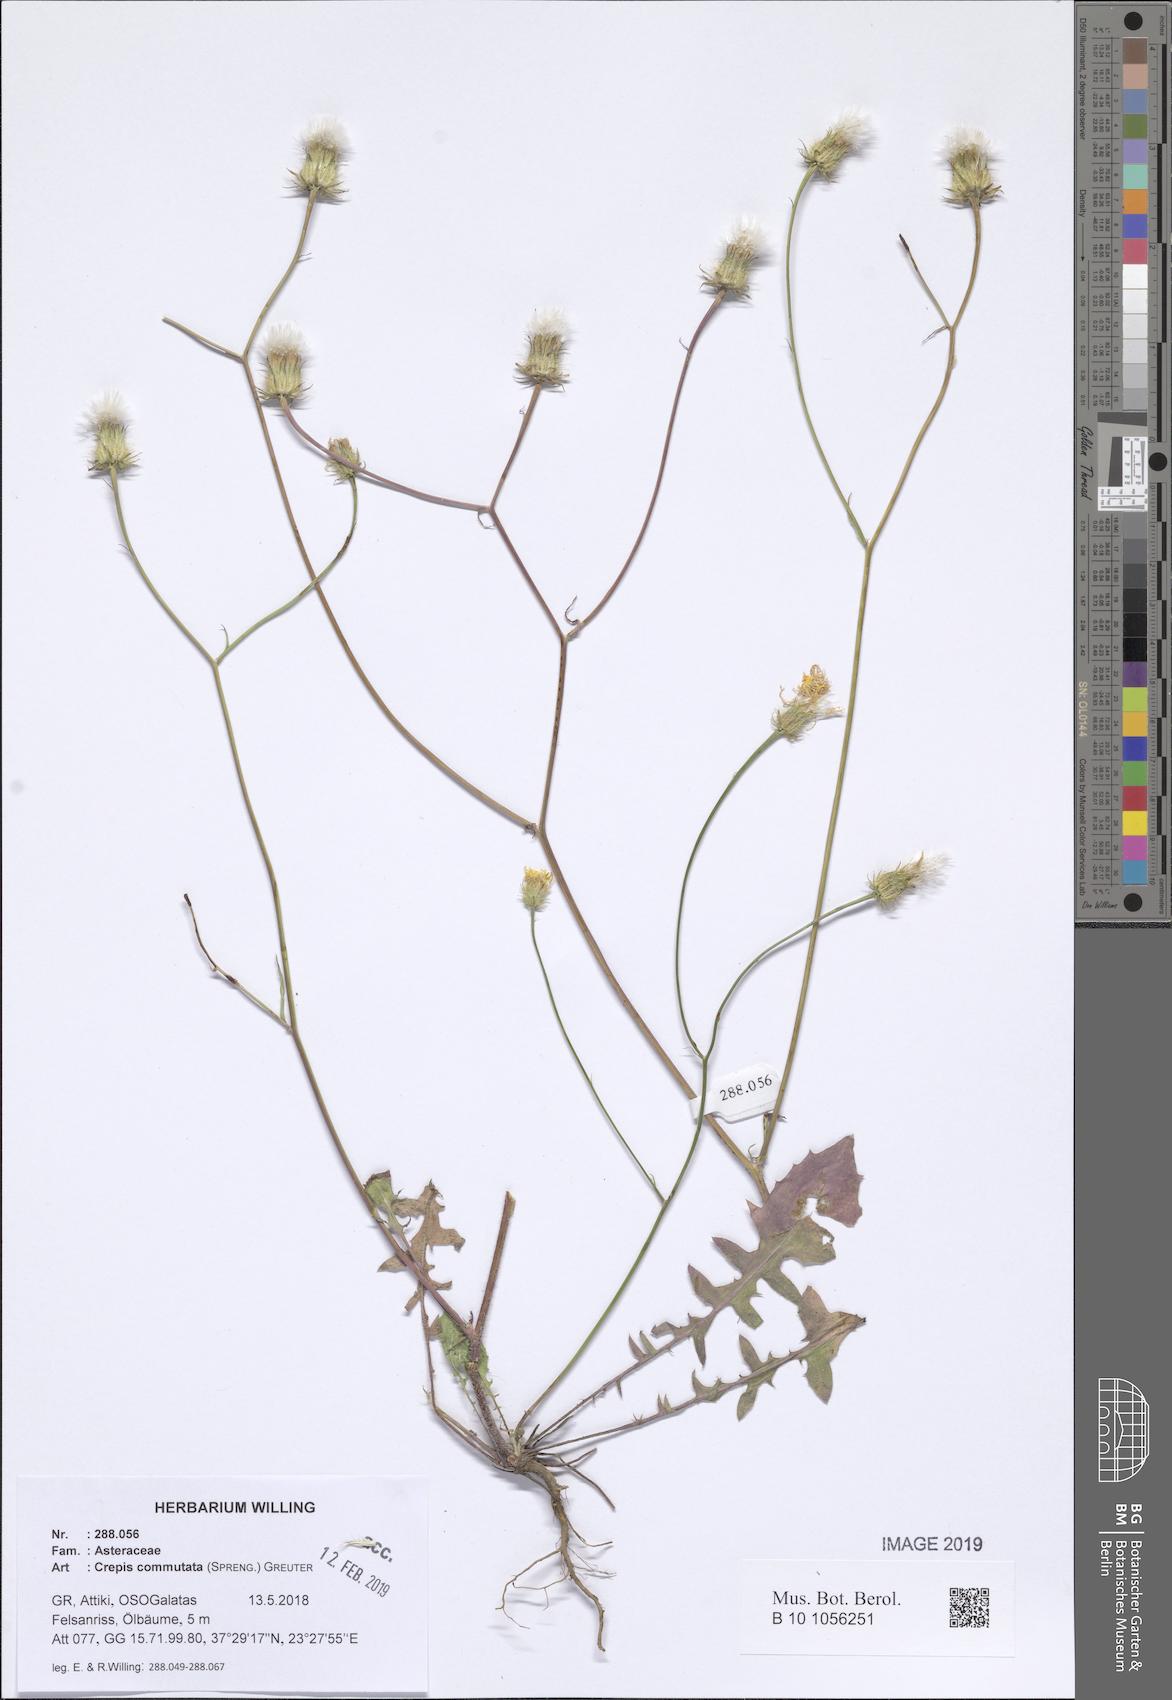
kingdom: Plantae
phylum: Tracheophyta
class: Magnoliopsida
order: Asterales
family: Asteraceae
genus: Crepis
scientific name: Crepis commutata
